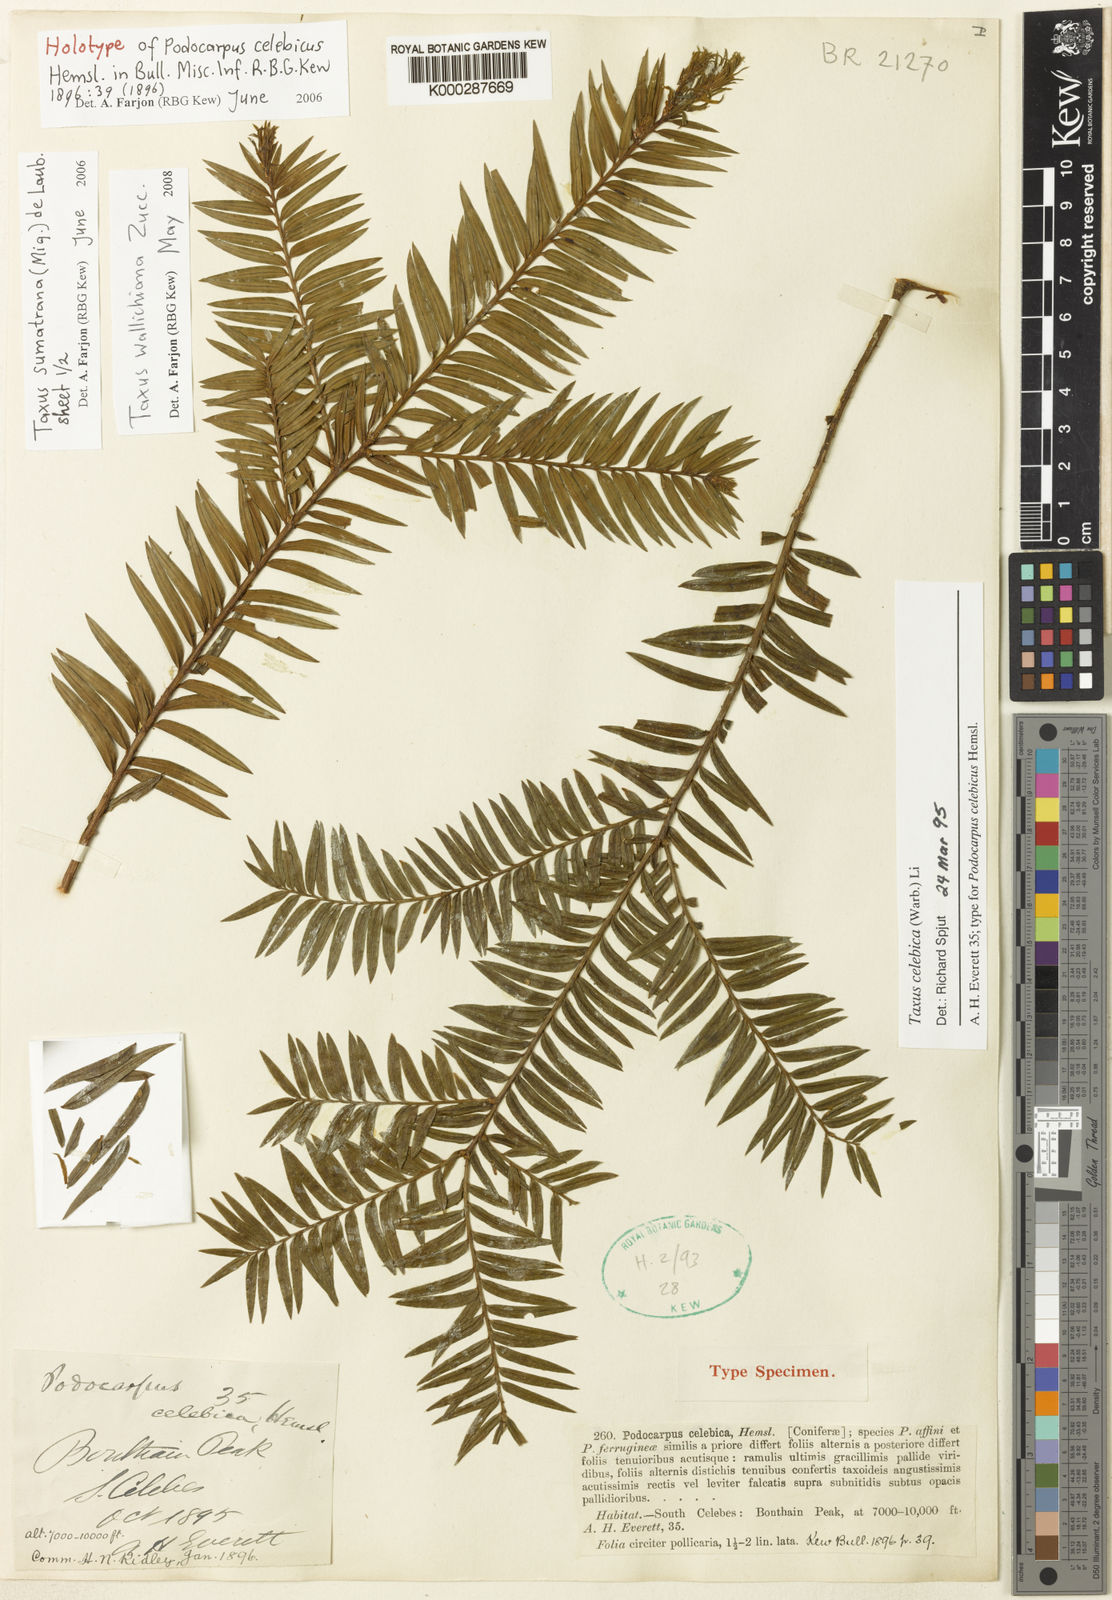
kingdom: Plantae
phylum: Tracheophyta
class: Pinopsida
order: Pinales
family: Taxaceae
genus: Taxus
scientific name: Taxus wallichiana
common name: Himalayan yew
